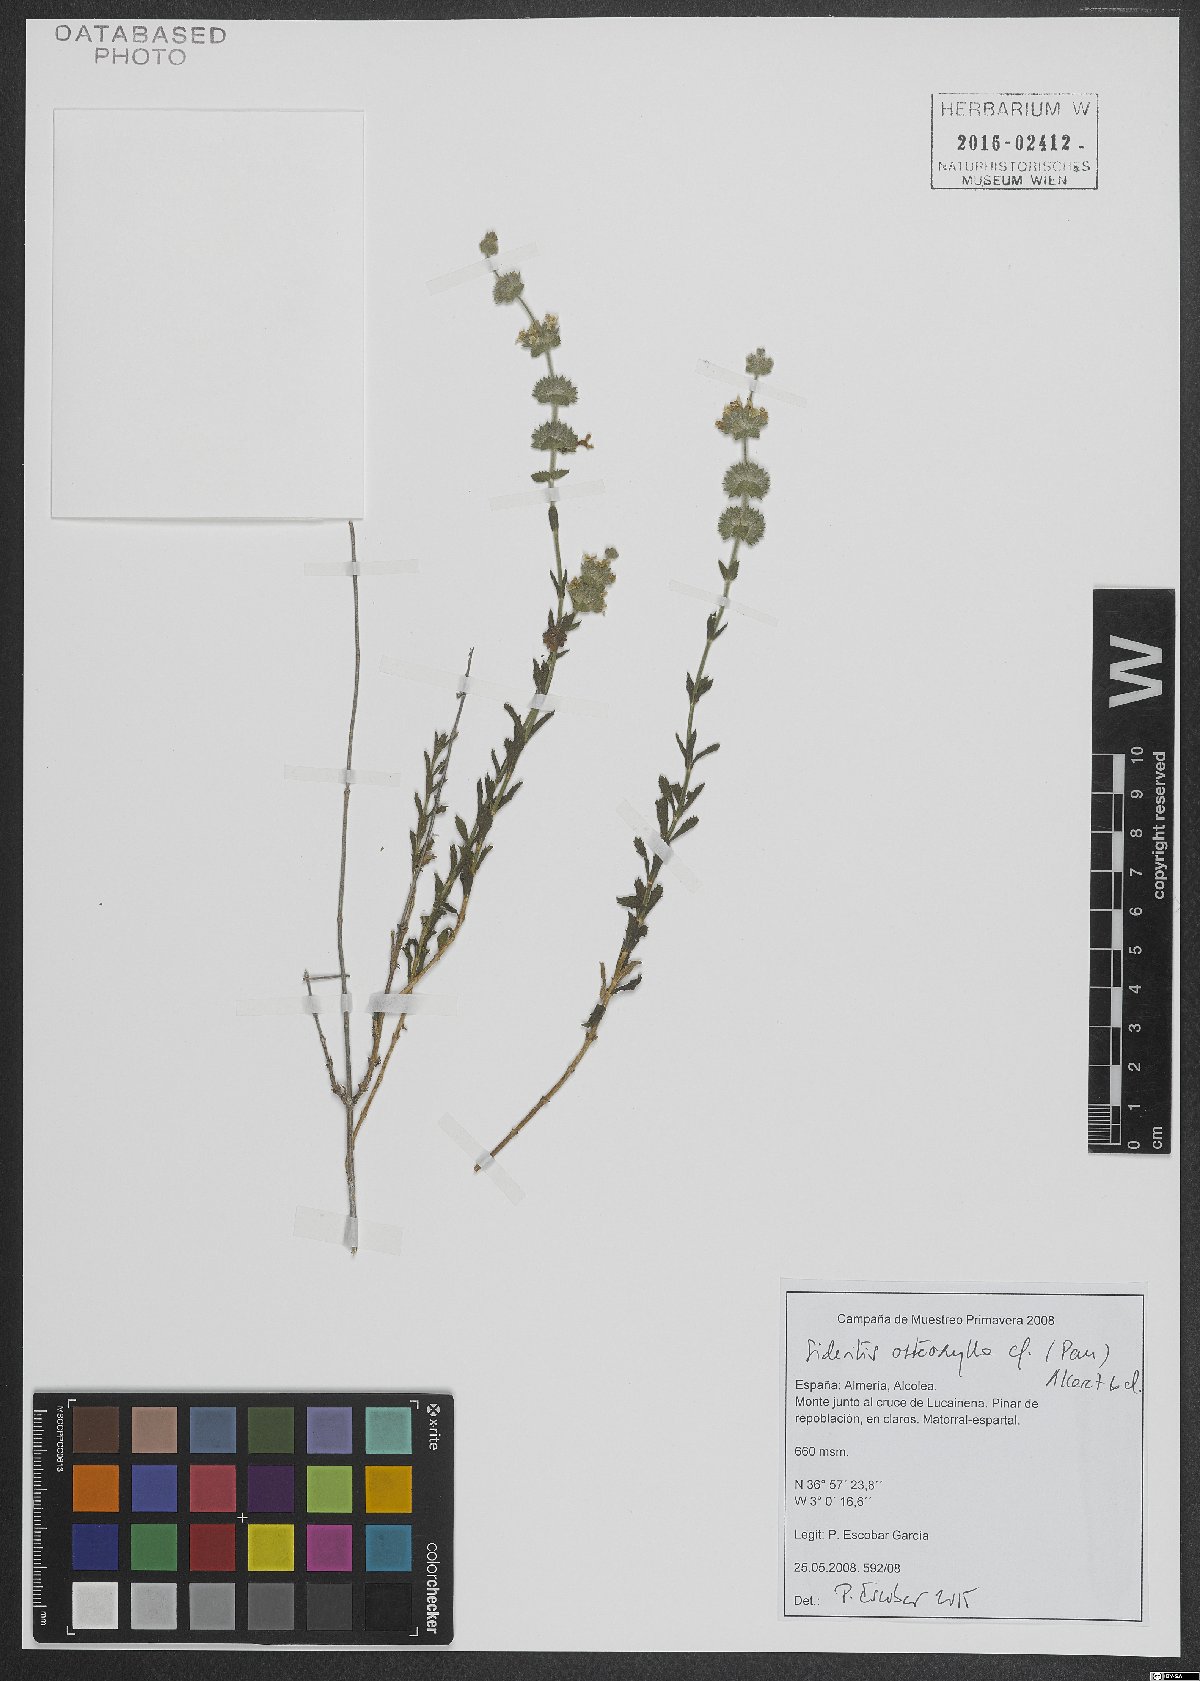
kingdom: Plantae
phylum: Tracheophyta
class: Magnoliopsida
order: Lamiales
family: Lamiaceae
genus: Sideritis
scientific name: Sideritis osteoxylla
